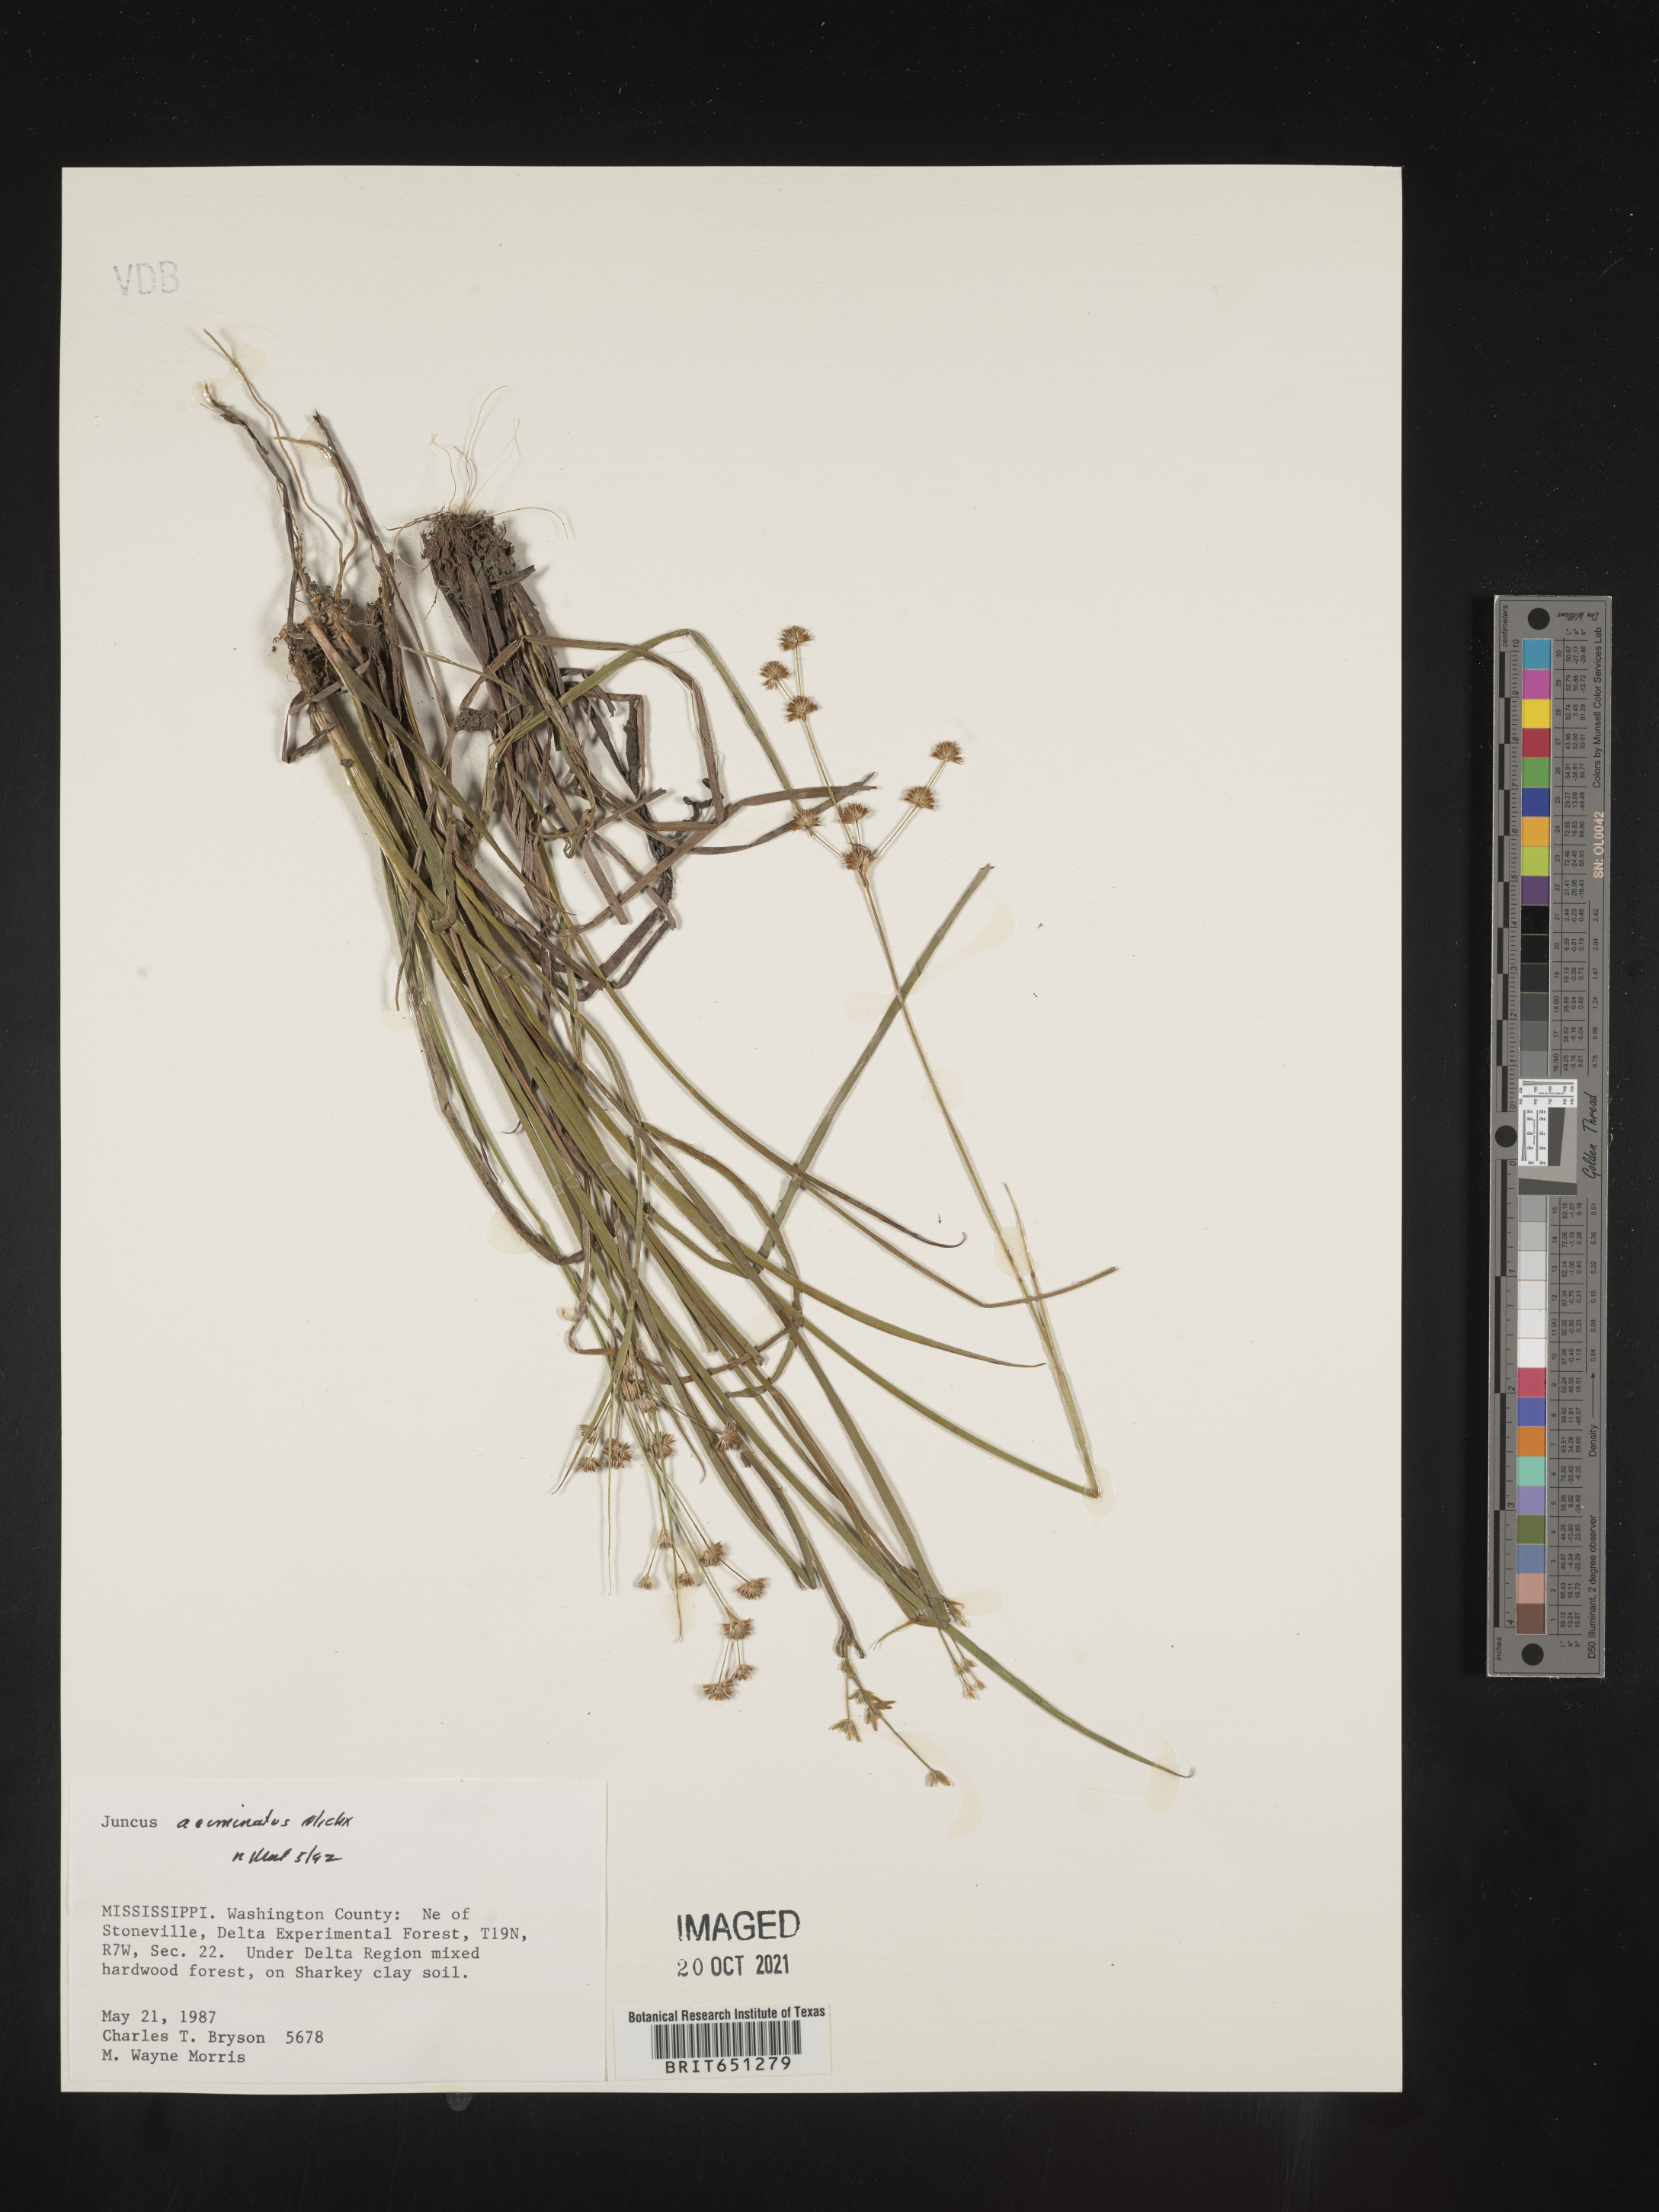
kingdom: Plantae
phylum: Tracheophyta
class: Liliopsida
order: Poales
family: Juncaceae
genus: Juncus
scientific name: Juncus acuminatus
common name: Knotty-leaved rush
